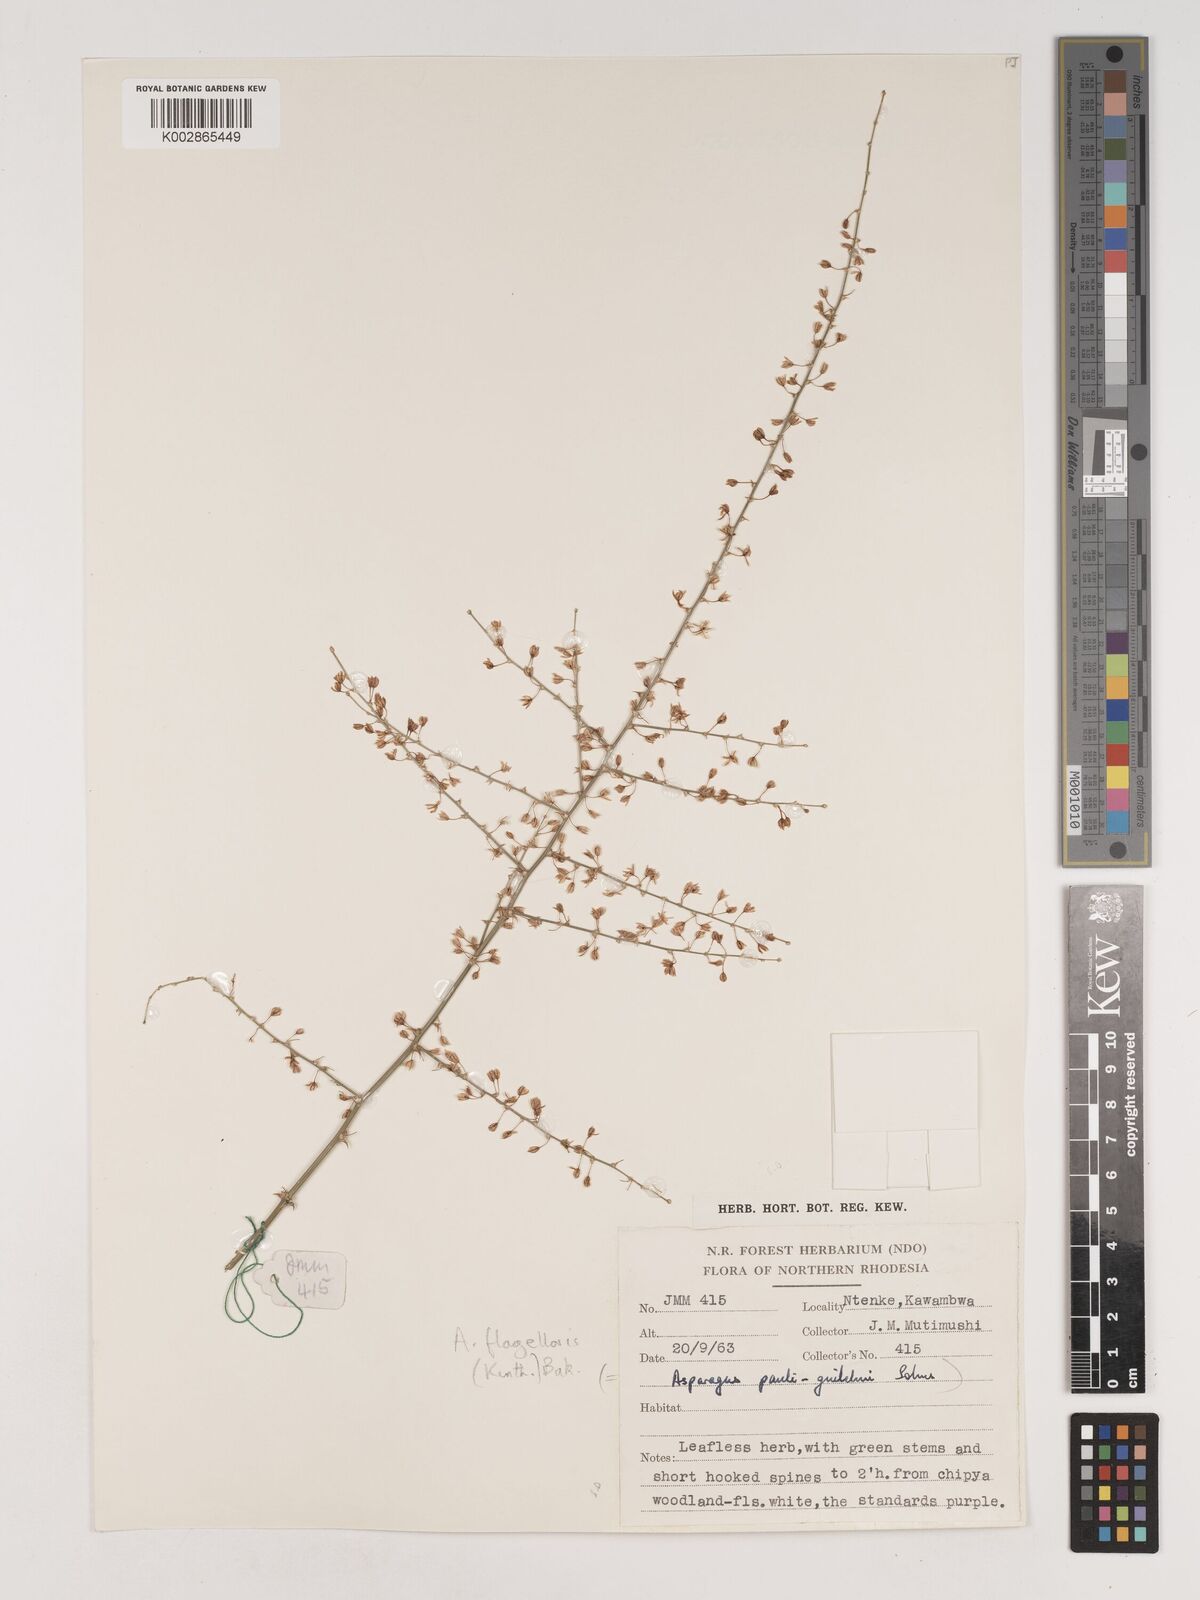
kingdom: Plantae
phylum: Tracheophyta
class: Liliopsida
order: Asparagales
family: Asparagaceae
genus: Asparagus
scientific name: Asparagus flagellaris
